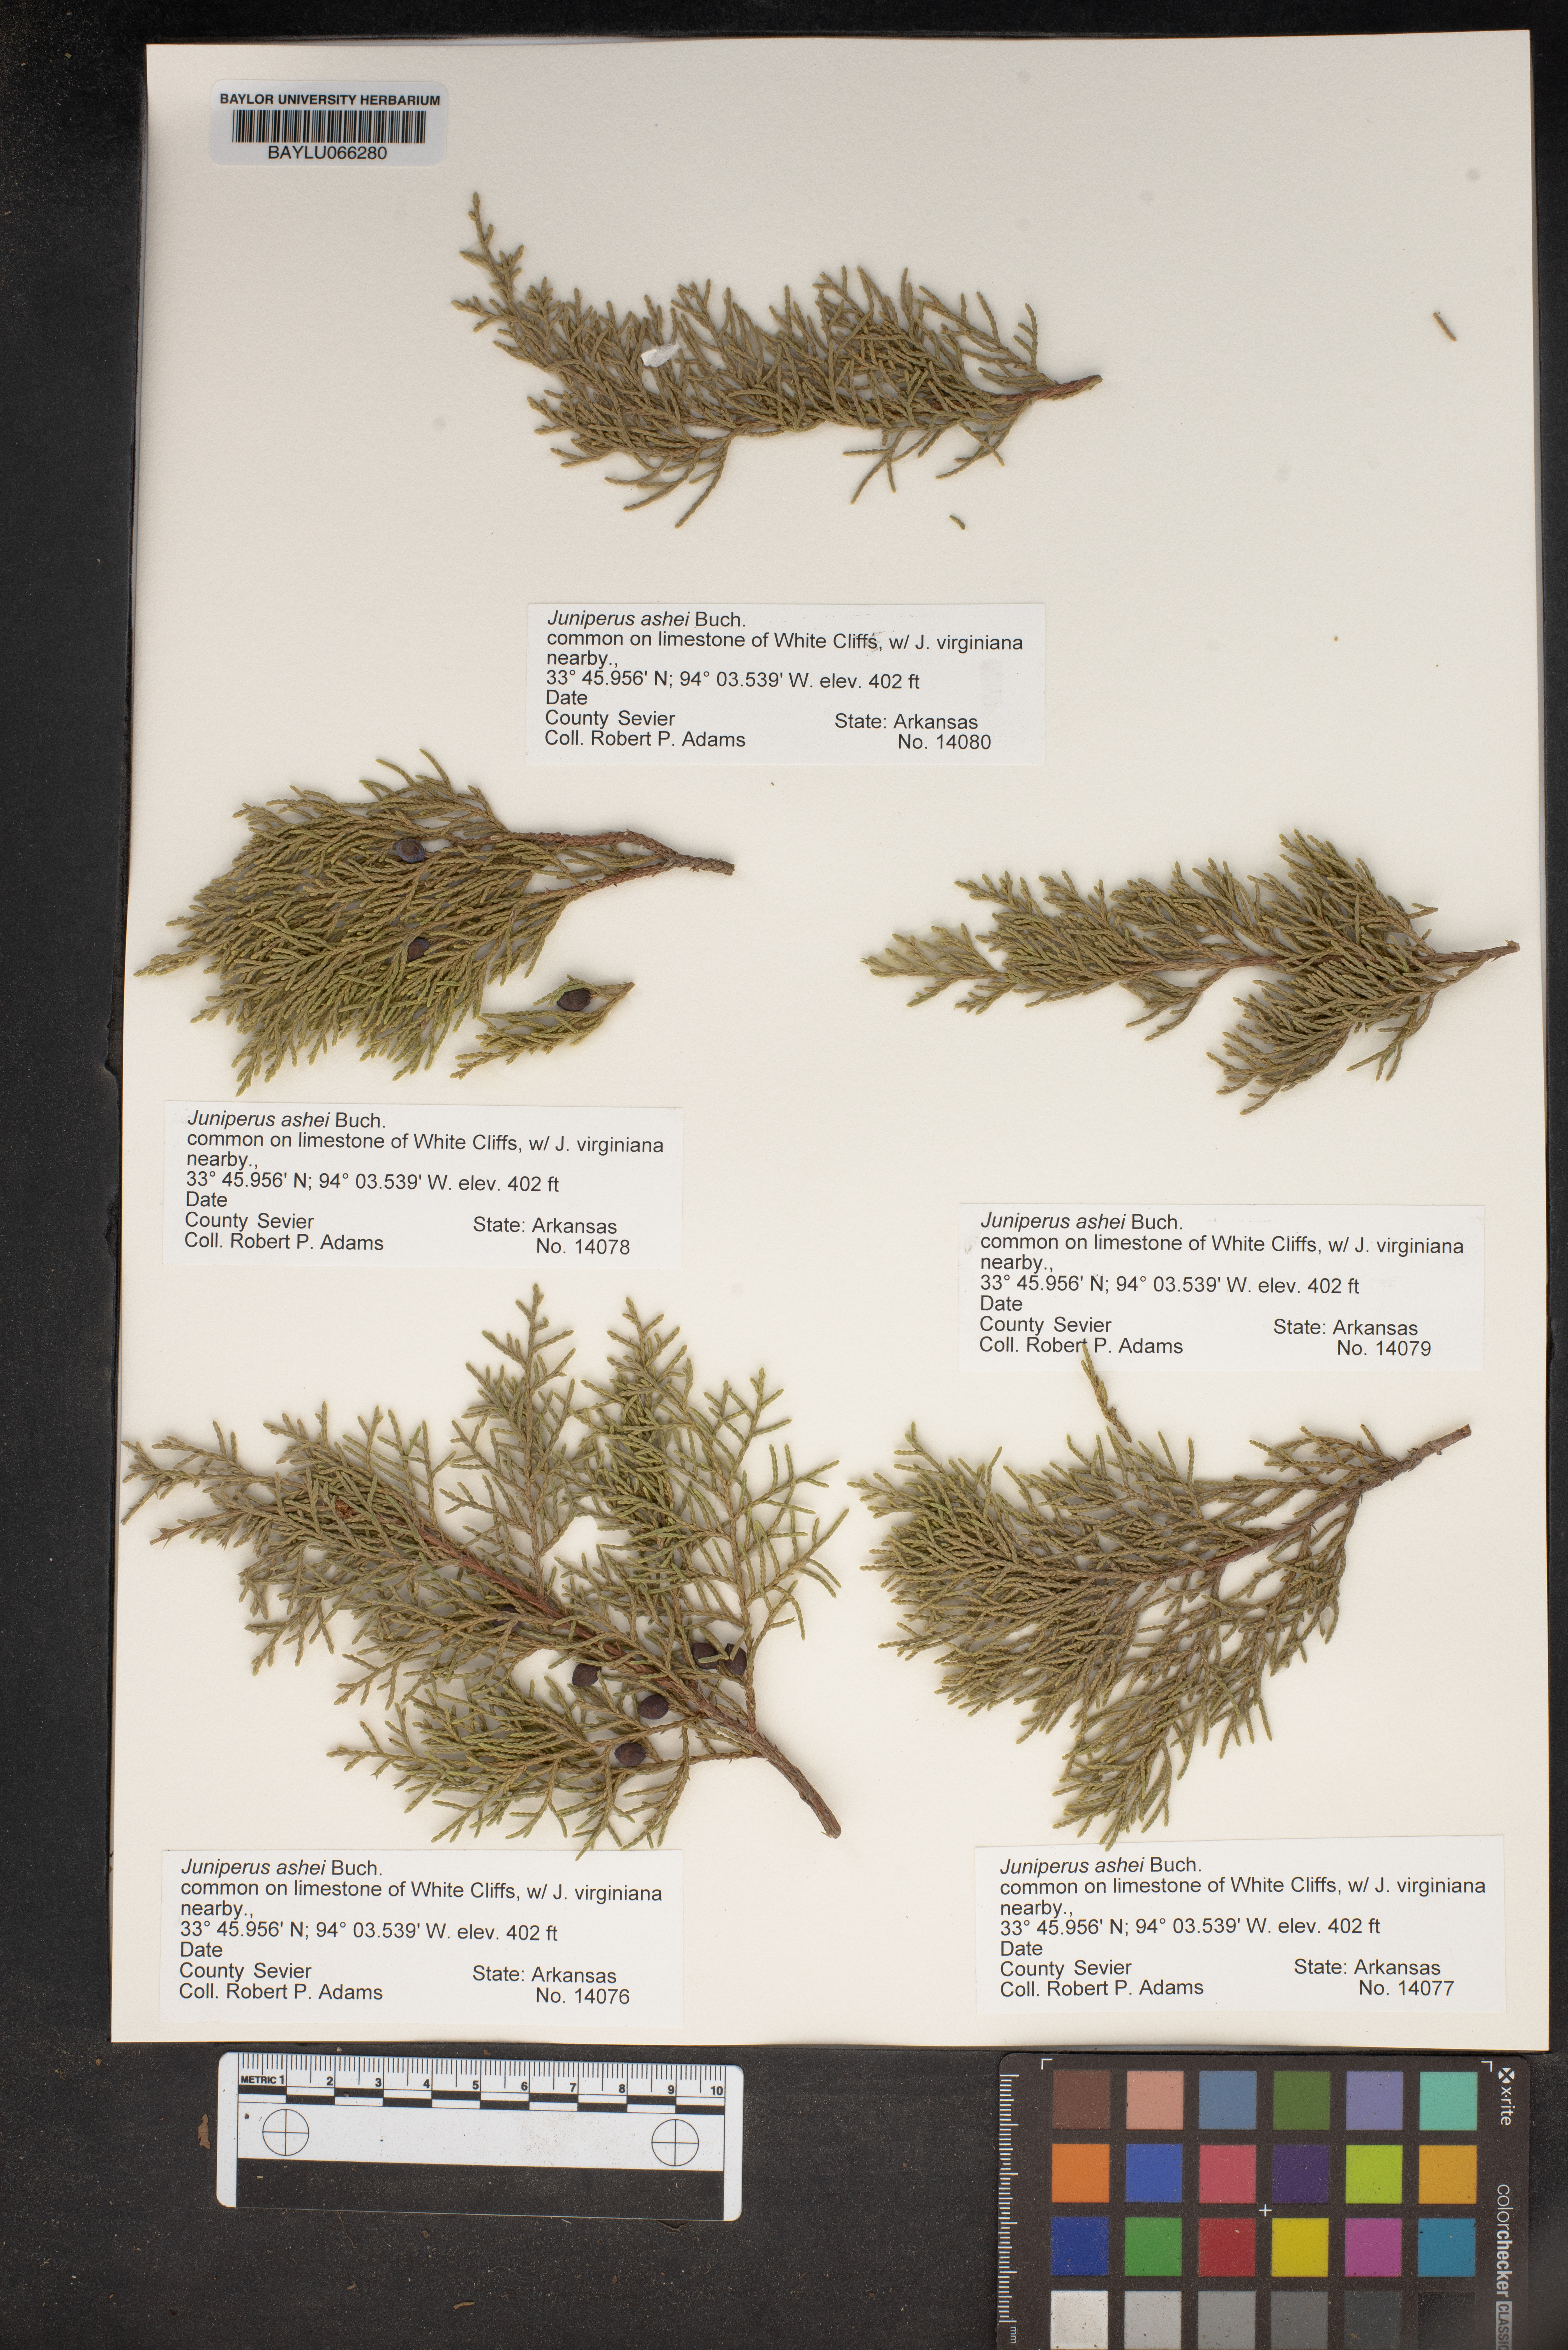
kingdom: Plantae
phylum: Tracheophyta
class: Pinopsida
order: Pinales
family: Cupressaceae
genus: Juniperus
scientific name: Juniperus ashei
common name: Mexican juniper
